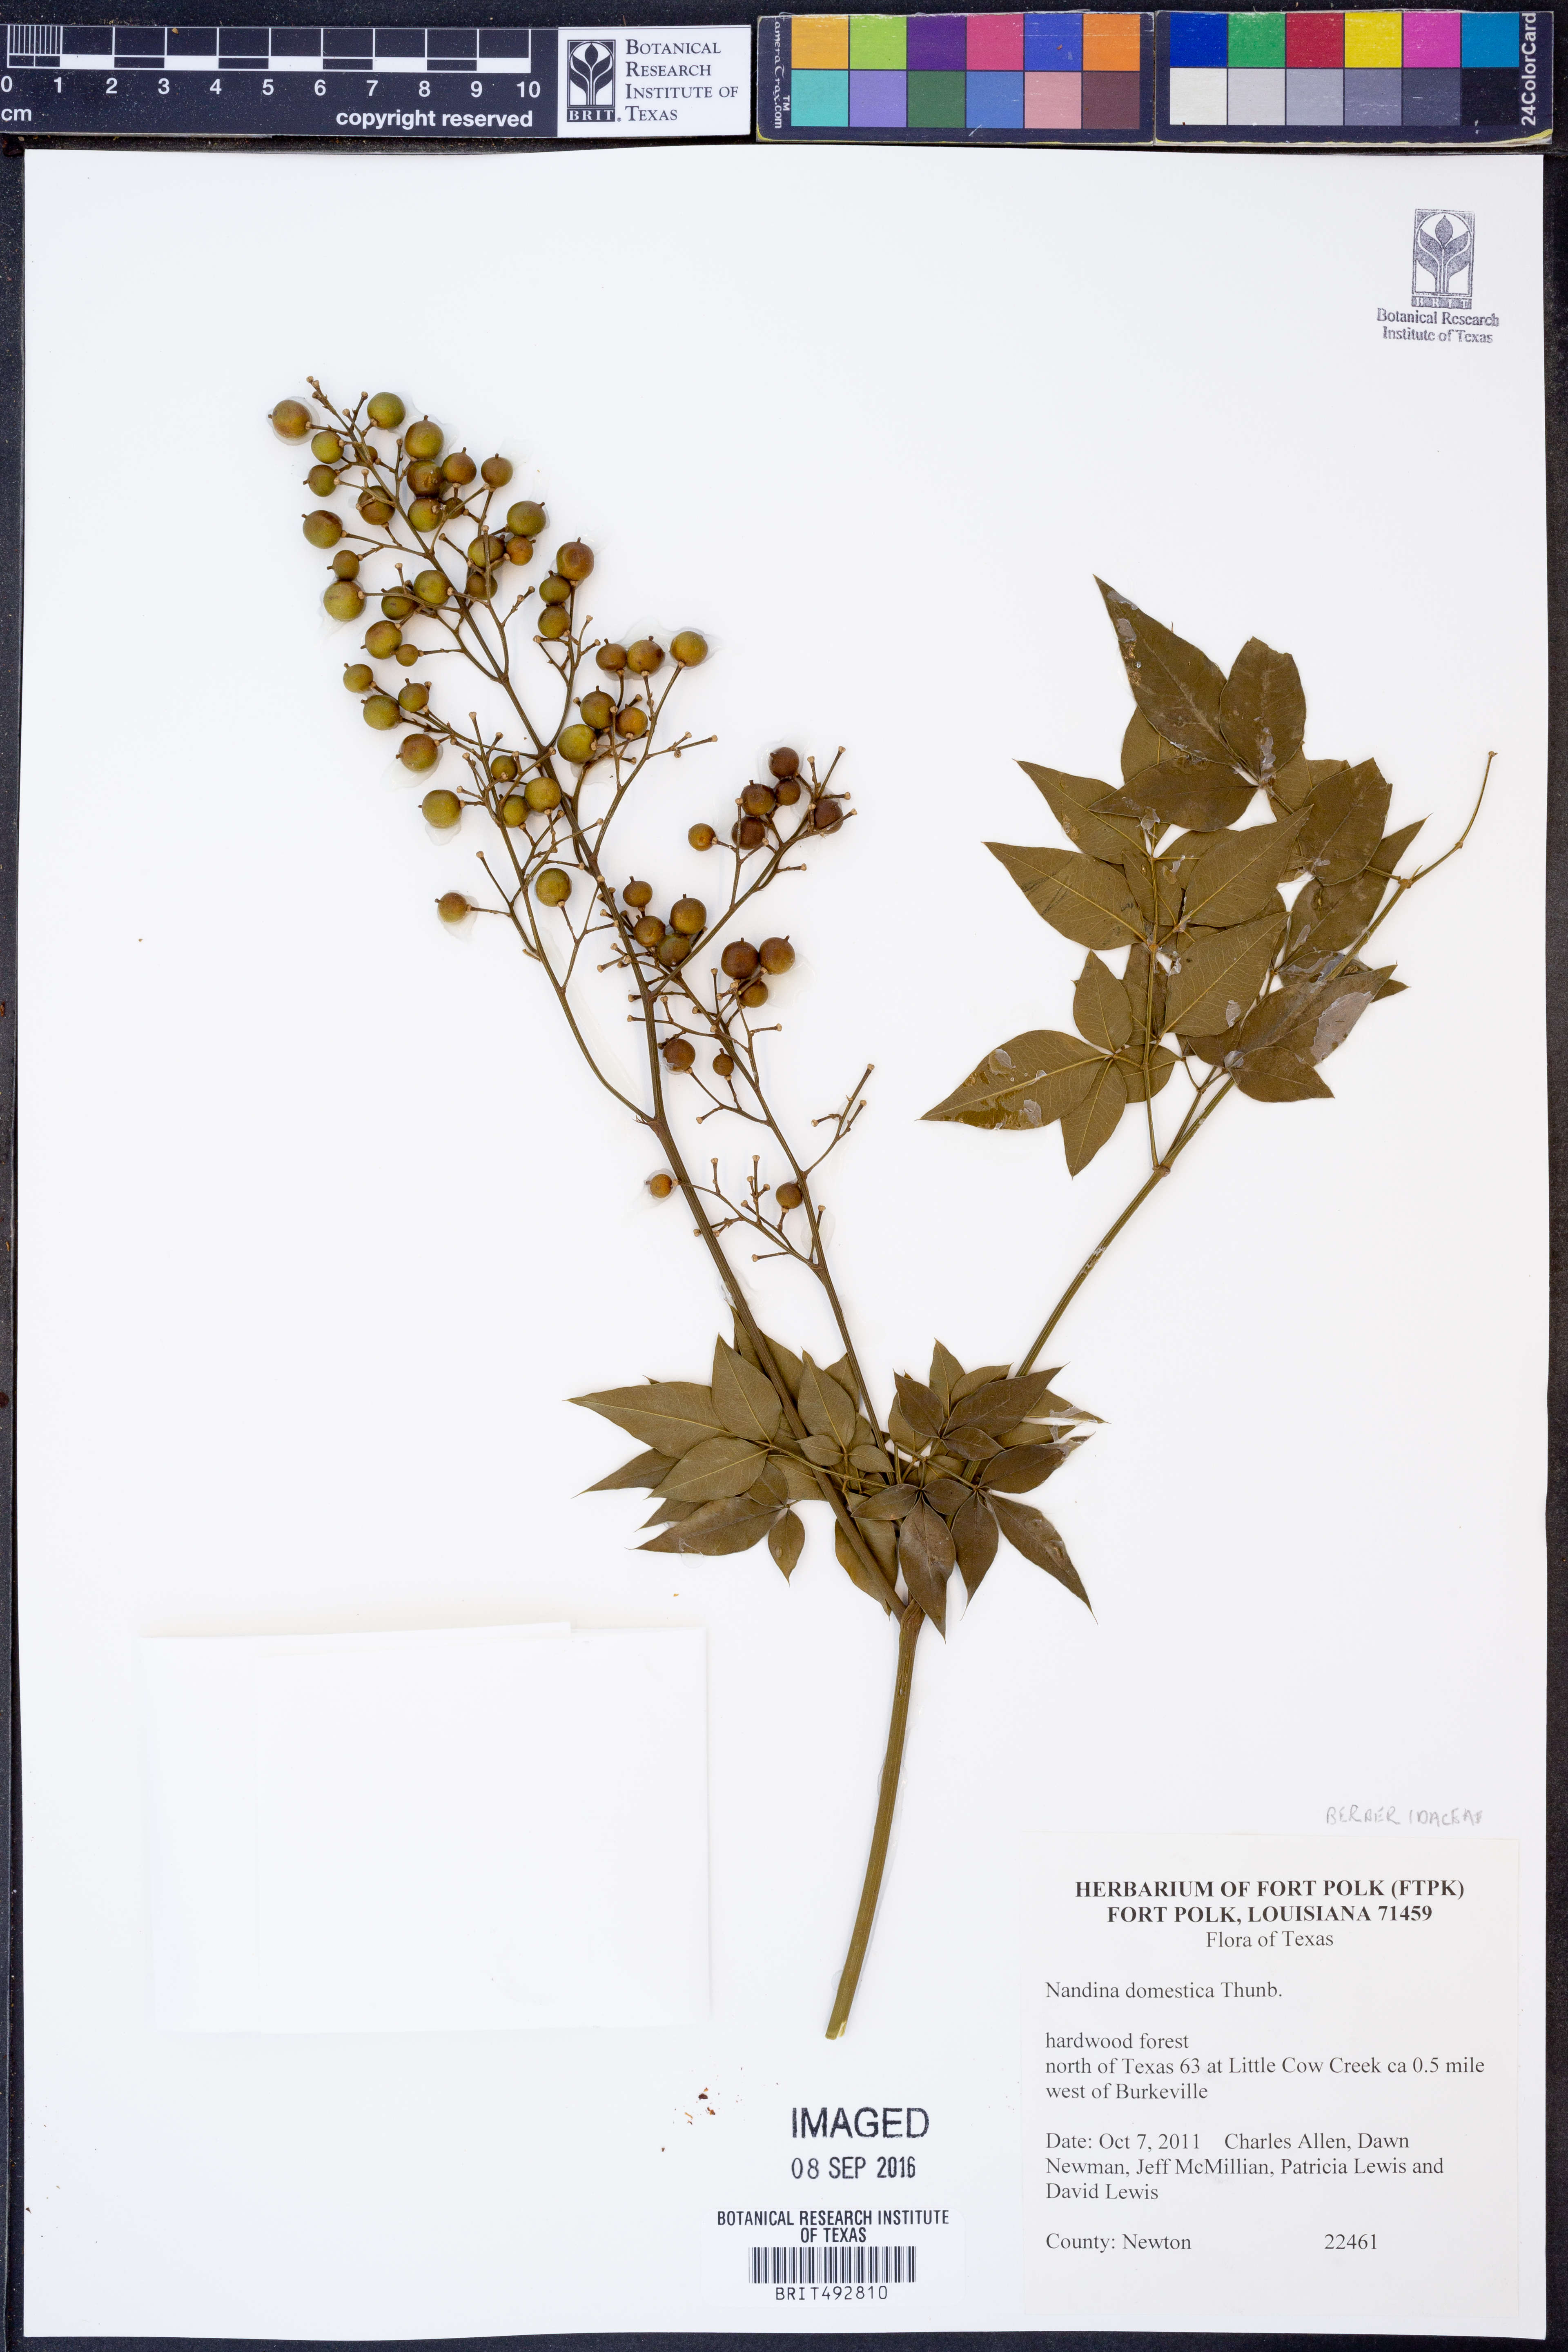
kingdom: Plantae
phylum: Tracheophyta
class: Magnoliopsida
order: Ranunculales
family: Berberidaceae
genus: Nandina
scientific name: Nandina domestica
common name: Sacred bamboo
